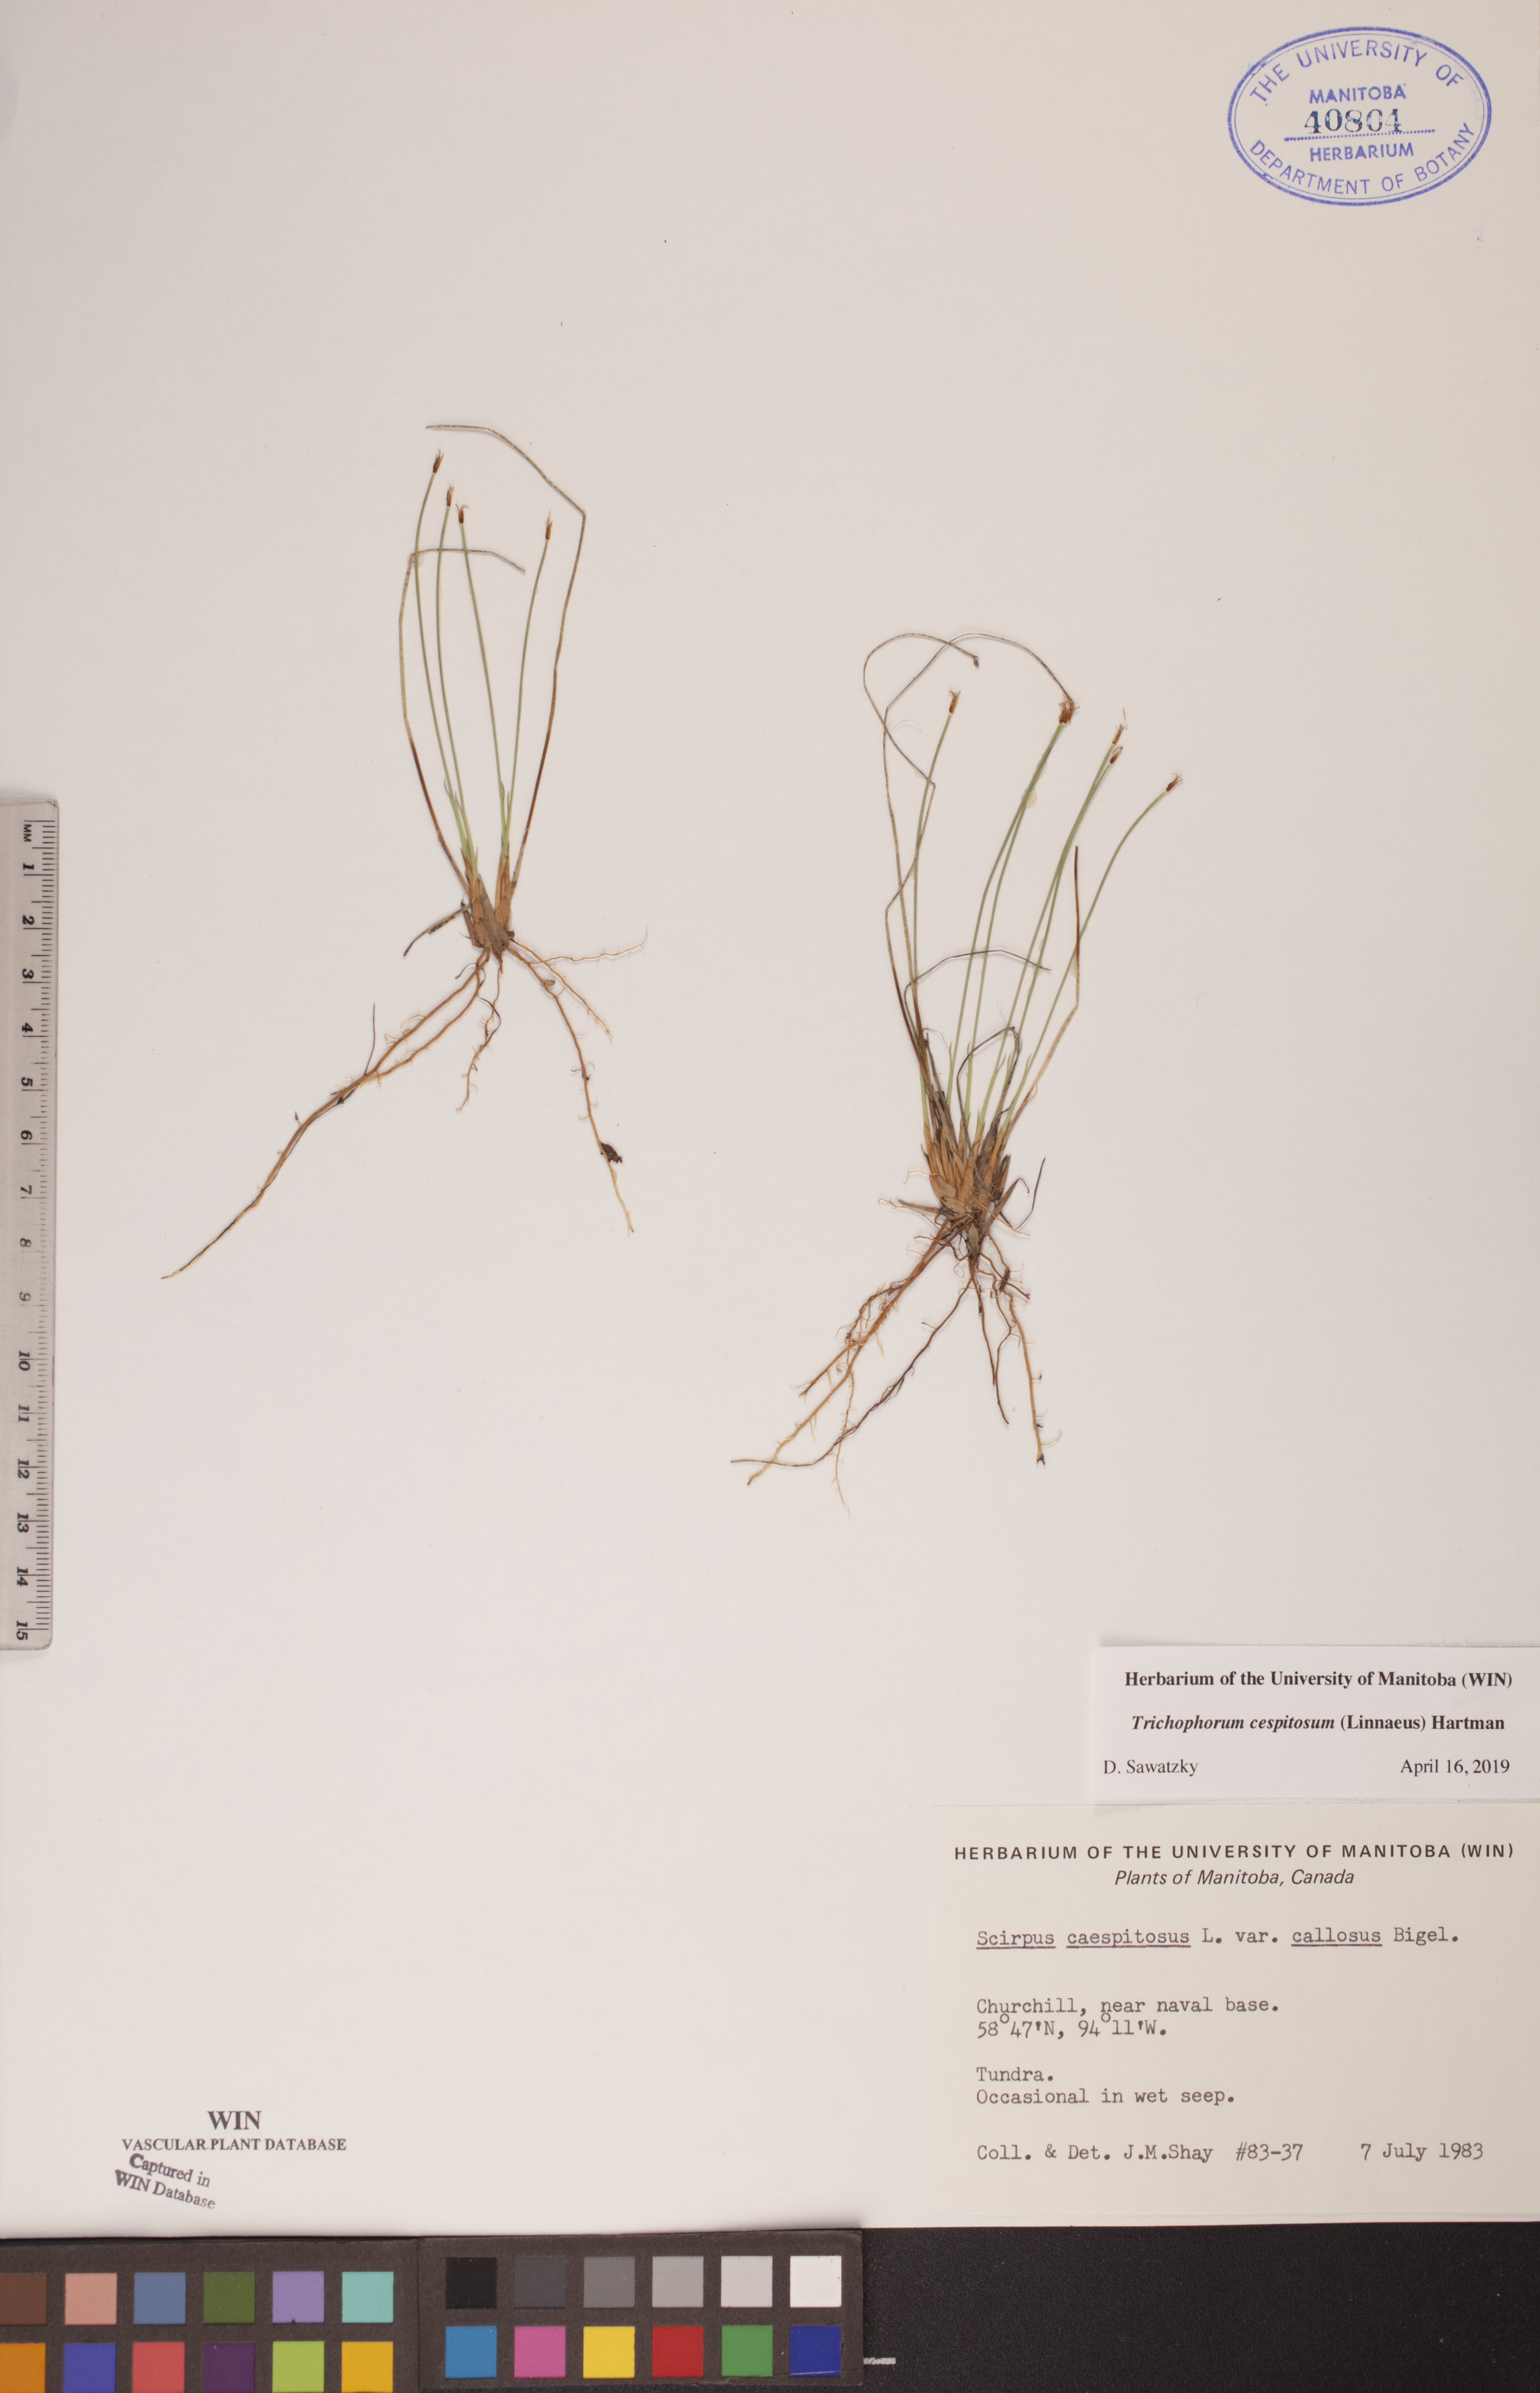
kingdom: Plantae
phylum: Tracheophyta
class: Liliopsida
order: Poales
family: Cyperaceae
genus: Trichophorum
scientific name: Trichophorum cespitosum
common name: Cespitose bulrush
